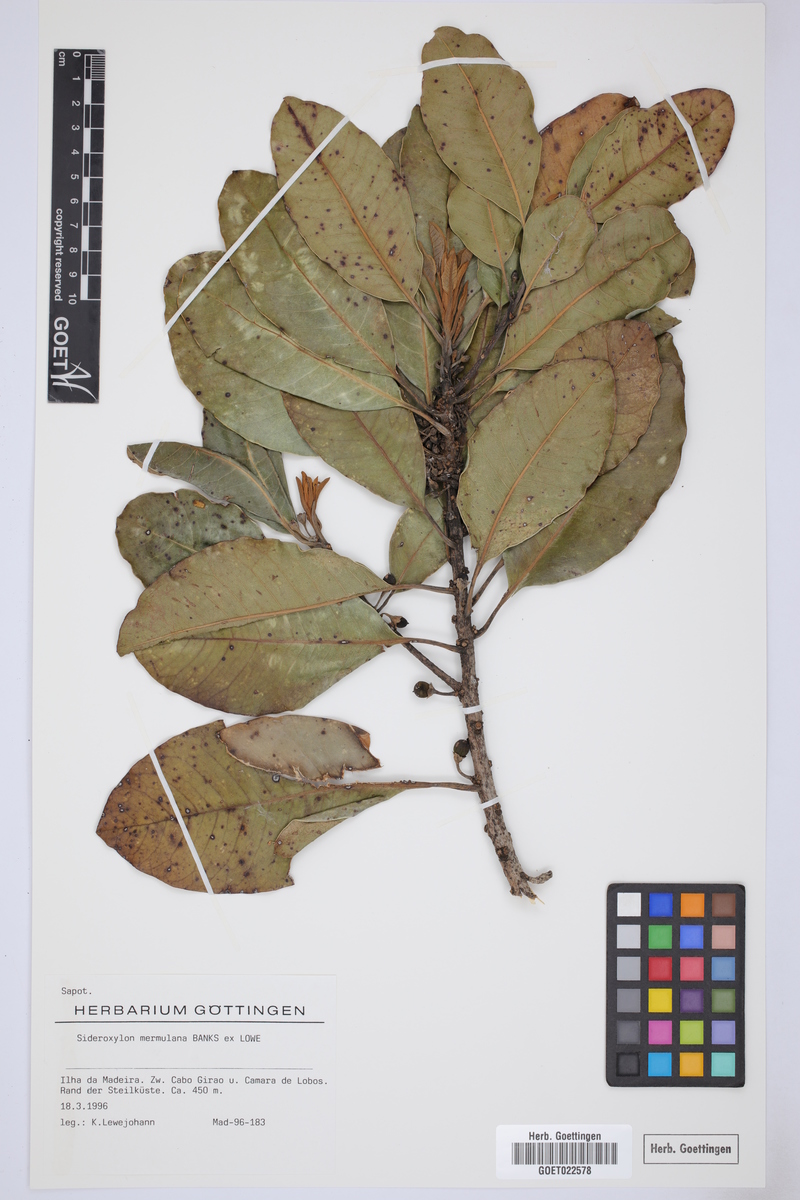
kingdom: Plantae
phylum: Tracheophyta
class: Magnoliopsida
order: Ericales
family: Sapotaceae
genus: Sideroxylon
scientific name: Sideroxylon mirmulano
